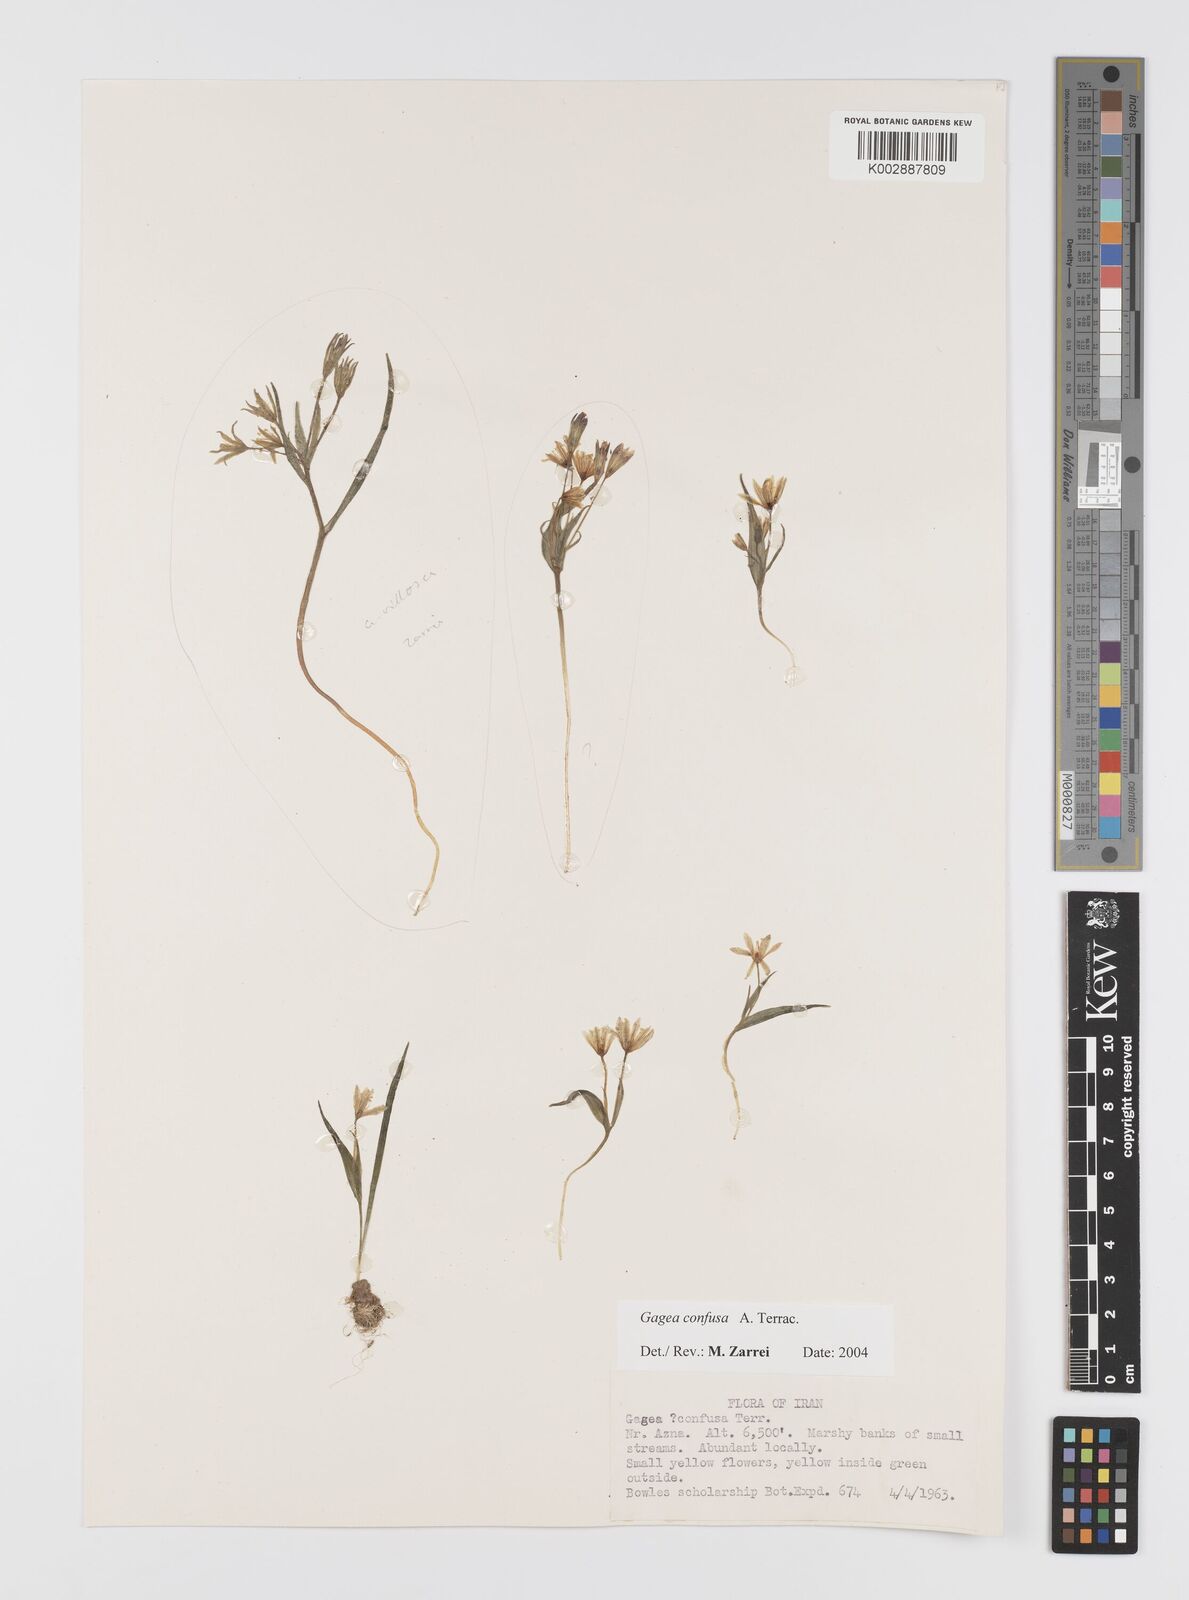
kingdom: Plantae
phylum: Tracheophyta
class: Liliopsida
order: Liliales
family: Liliaceae
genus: Gagea
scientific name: Gagea confusa
